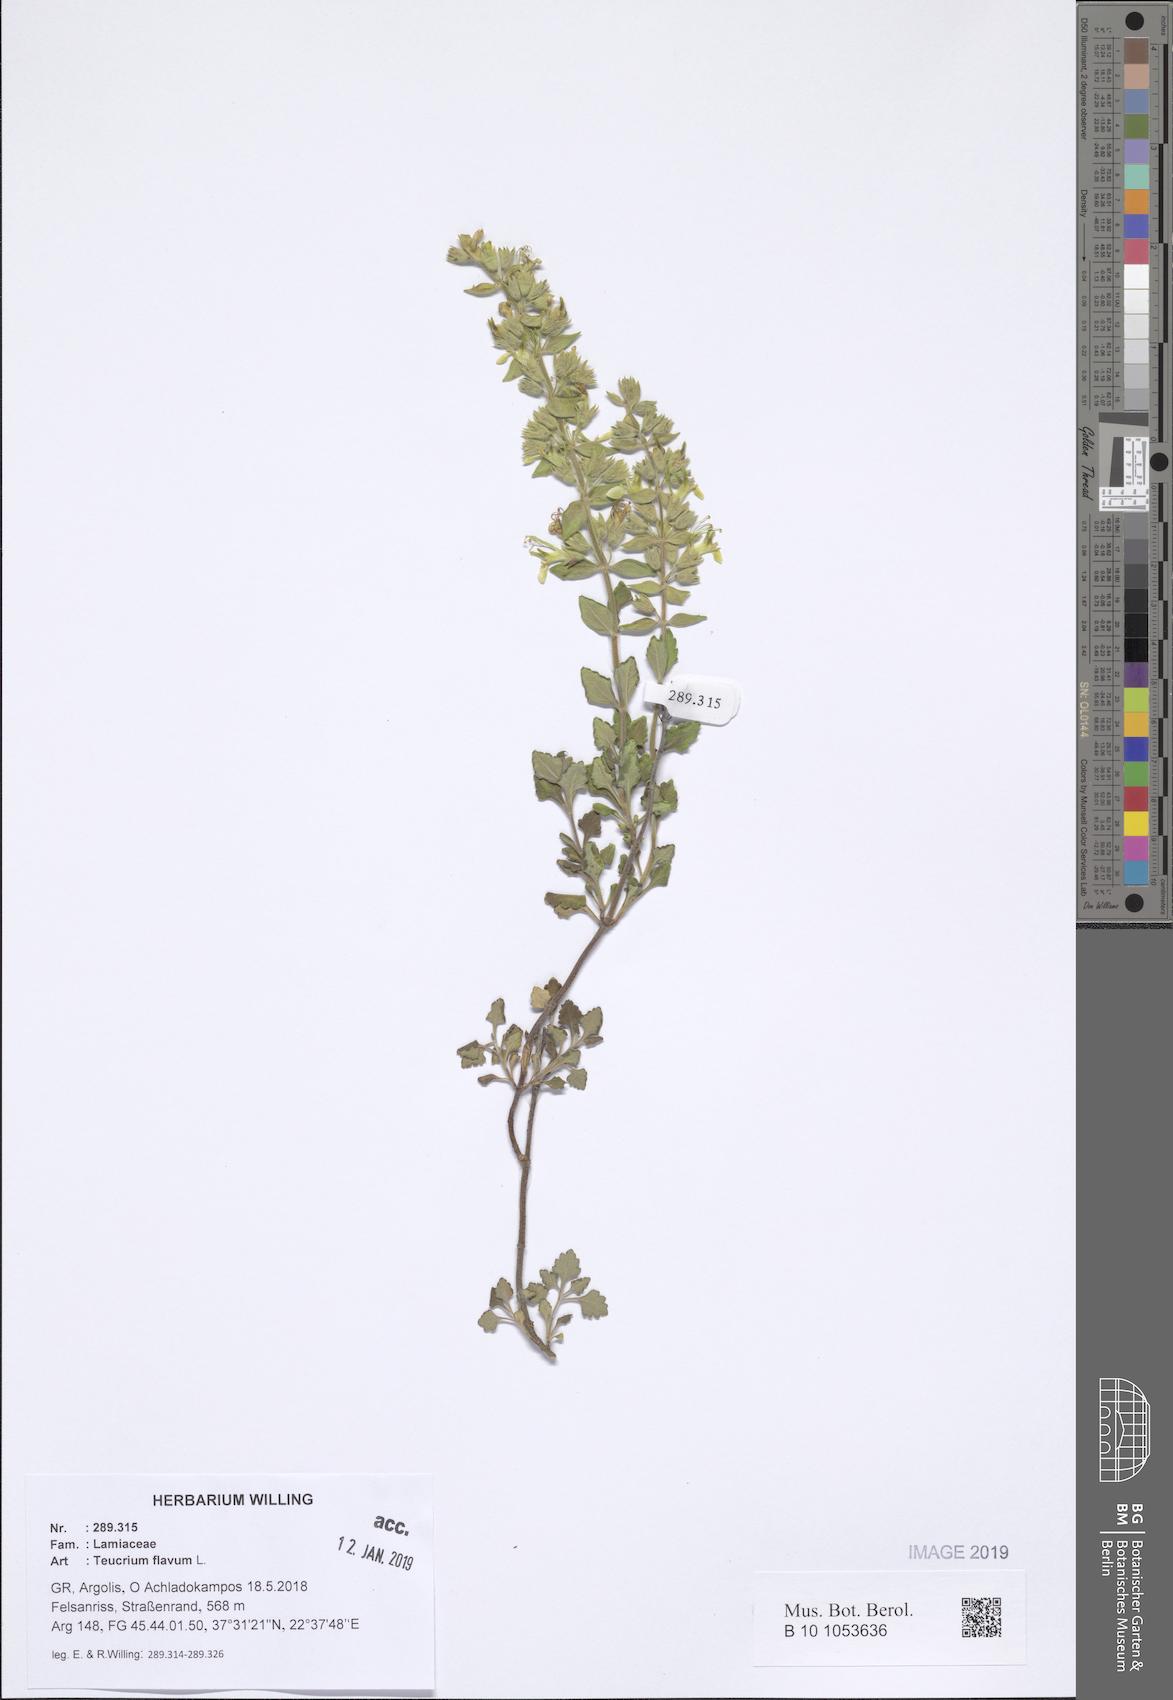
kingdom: Plantae
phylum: Tracheophyta
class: Magnoliopsida
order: Lamiales
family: Lamiaceae
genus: Teucrium
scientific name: Teucrium flavum
